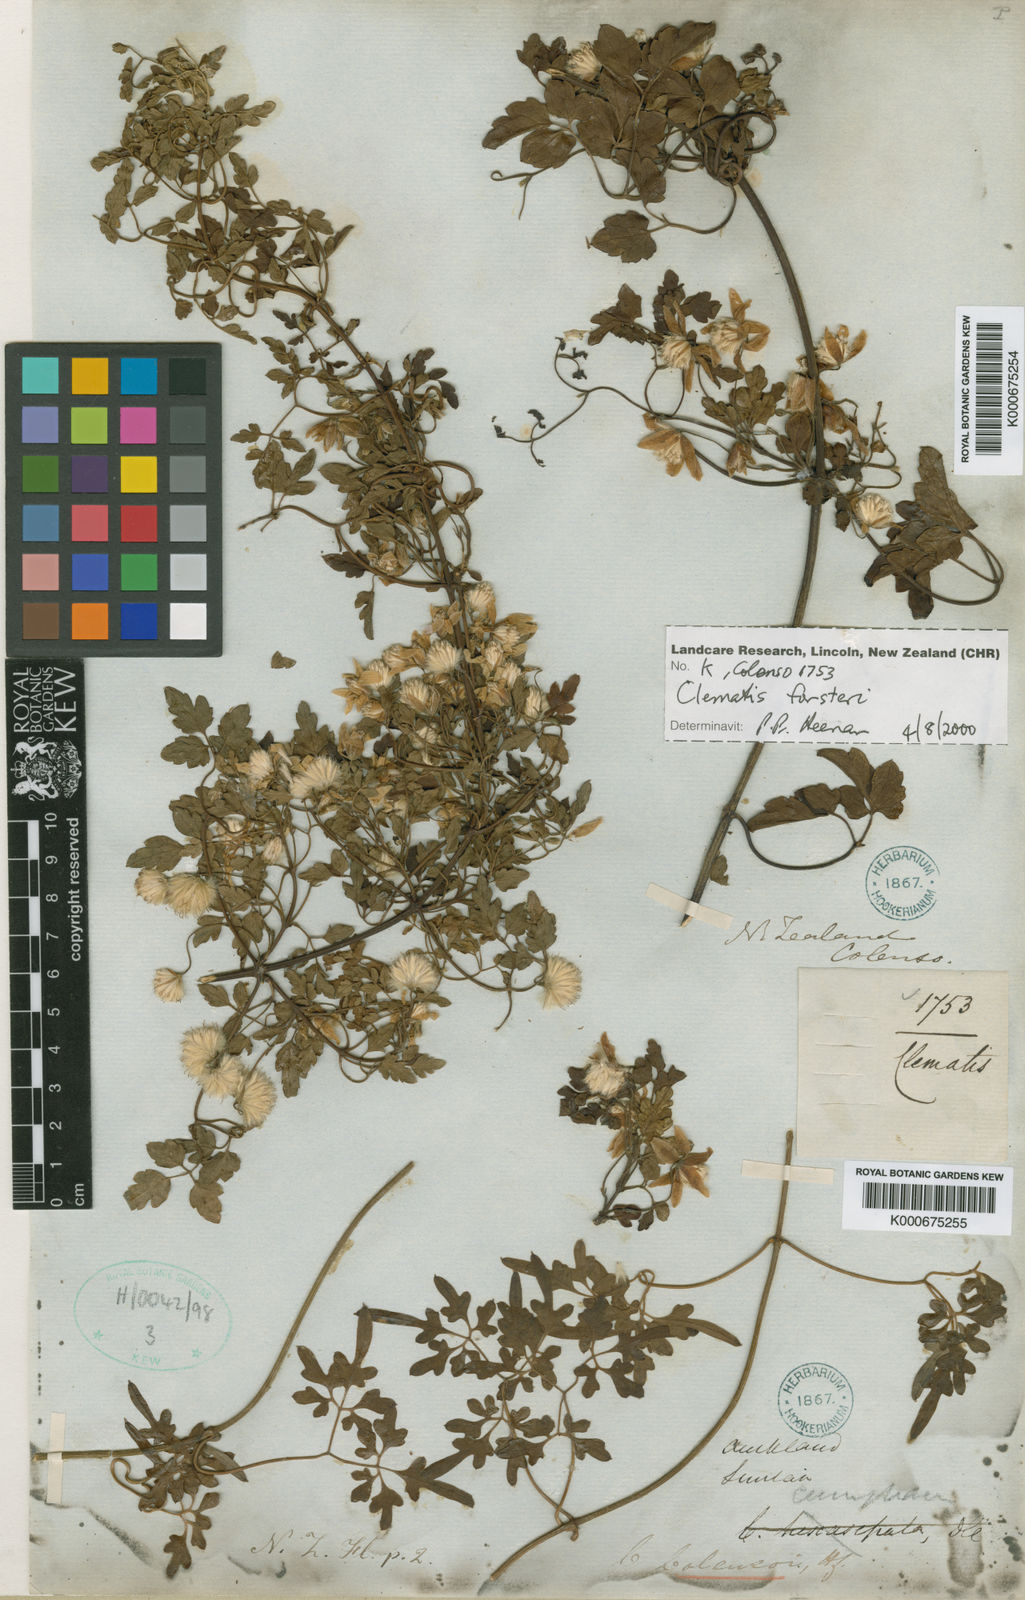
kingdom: Plantae
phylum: Tracheophyta
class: Magnoliopsida
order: Ranunculales
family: Ranunculaceae
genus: Clematis
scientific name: Clematis forsteri
